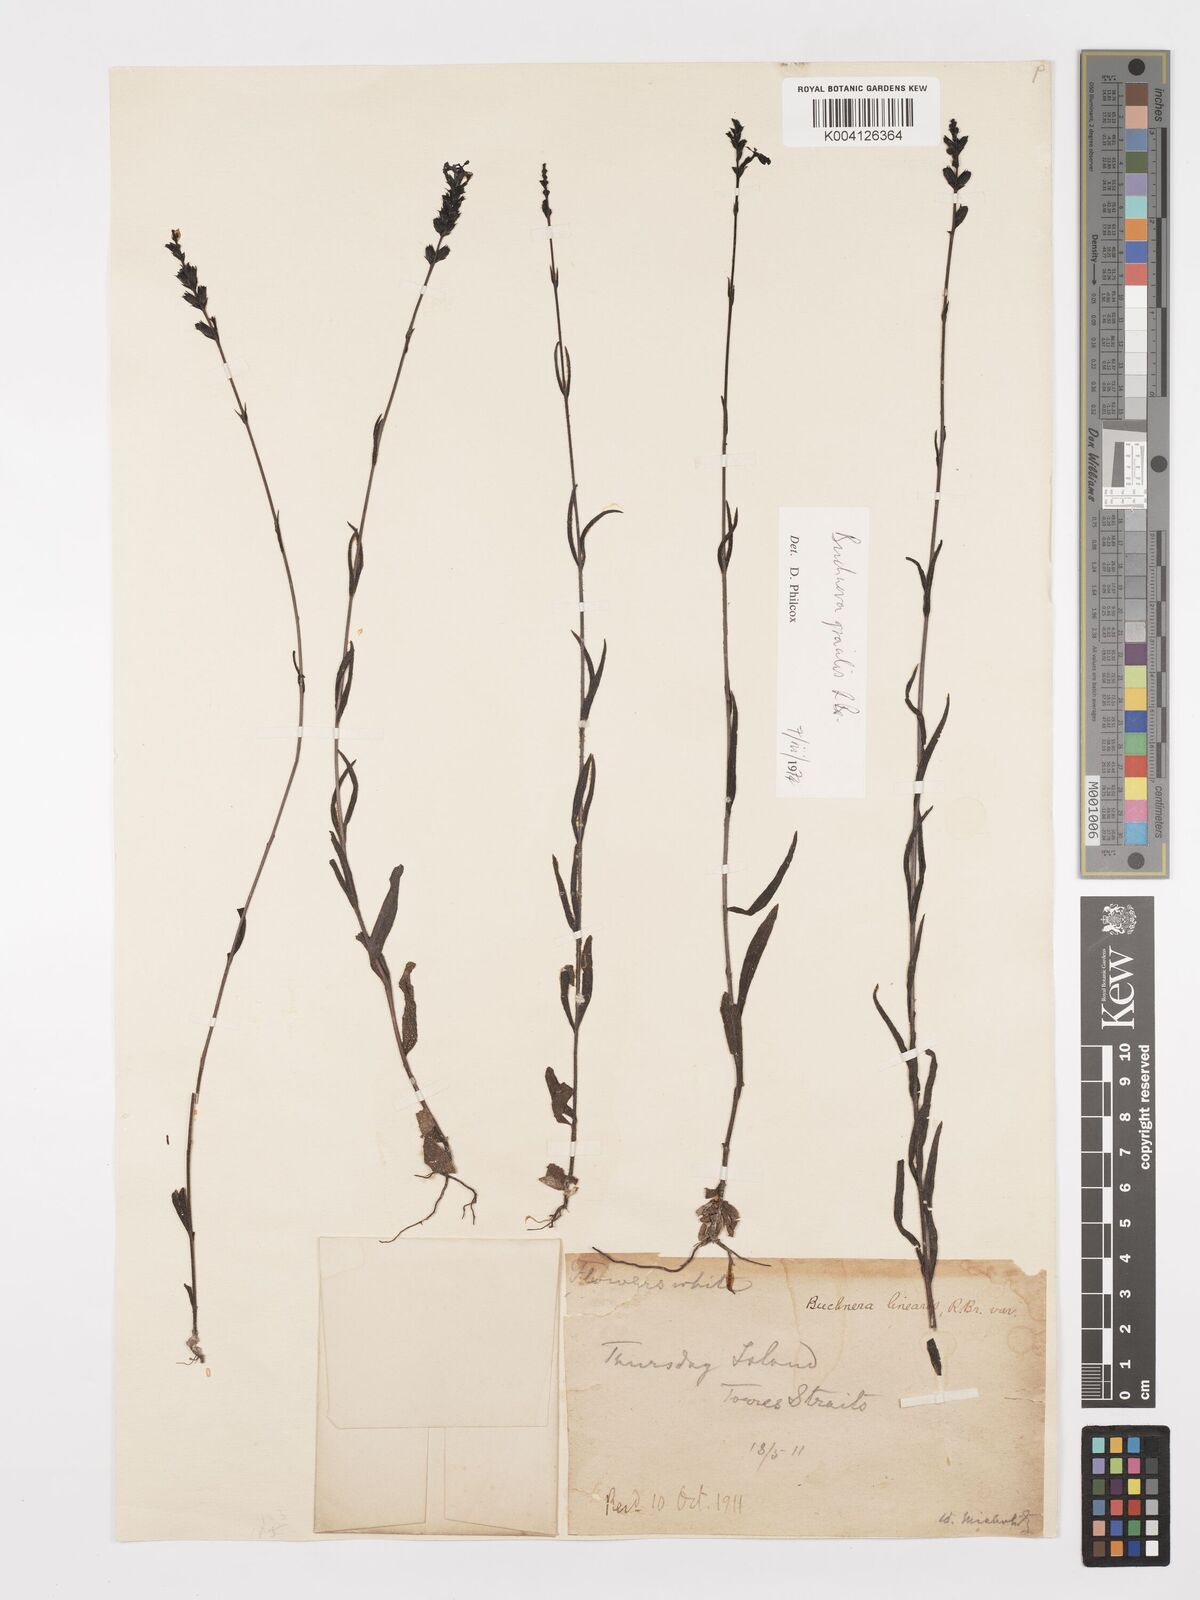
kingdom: Plantae
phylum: Tracheophyta
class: Magnoliopsida
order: Lamiales
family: Orobanchaceae
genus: Buchnera
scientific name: Buchnera gracilis
